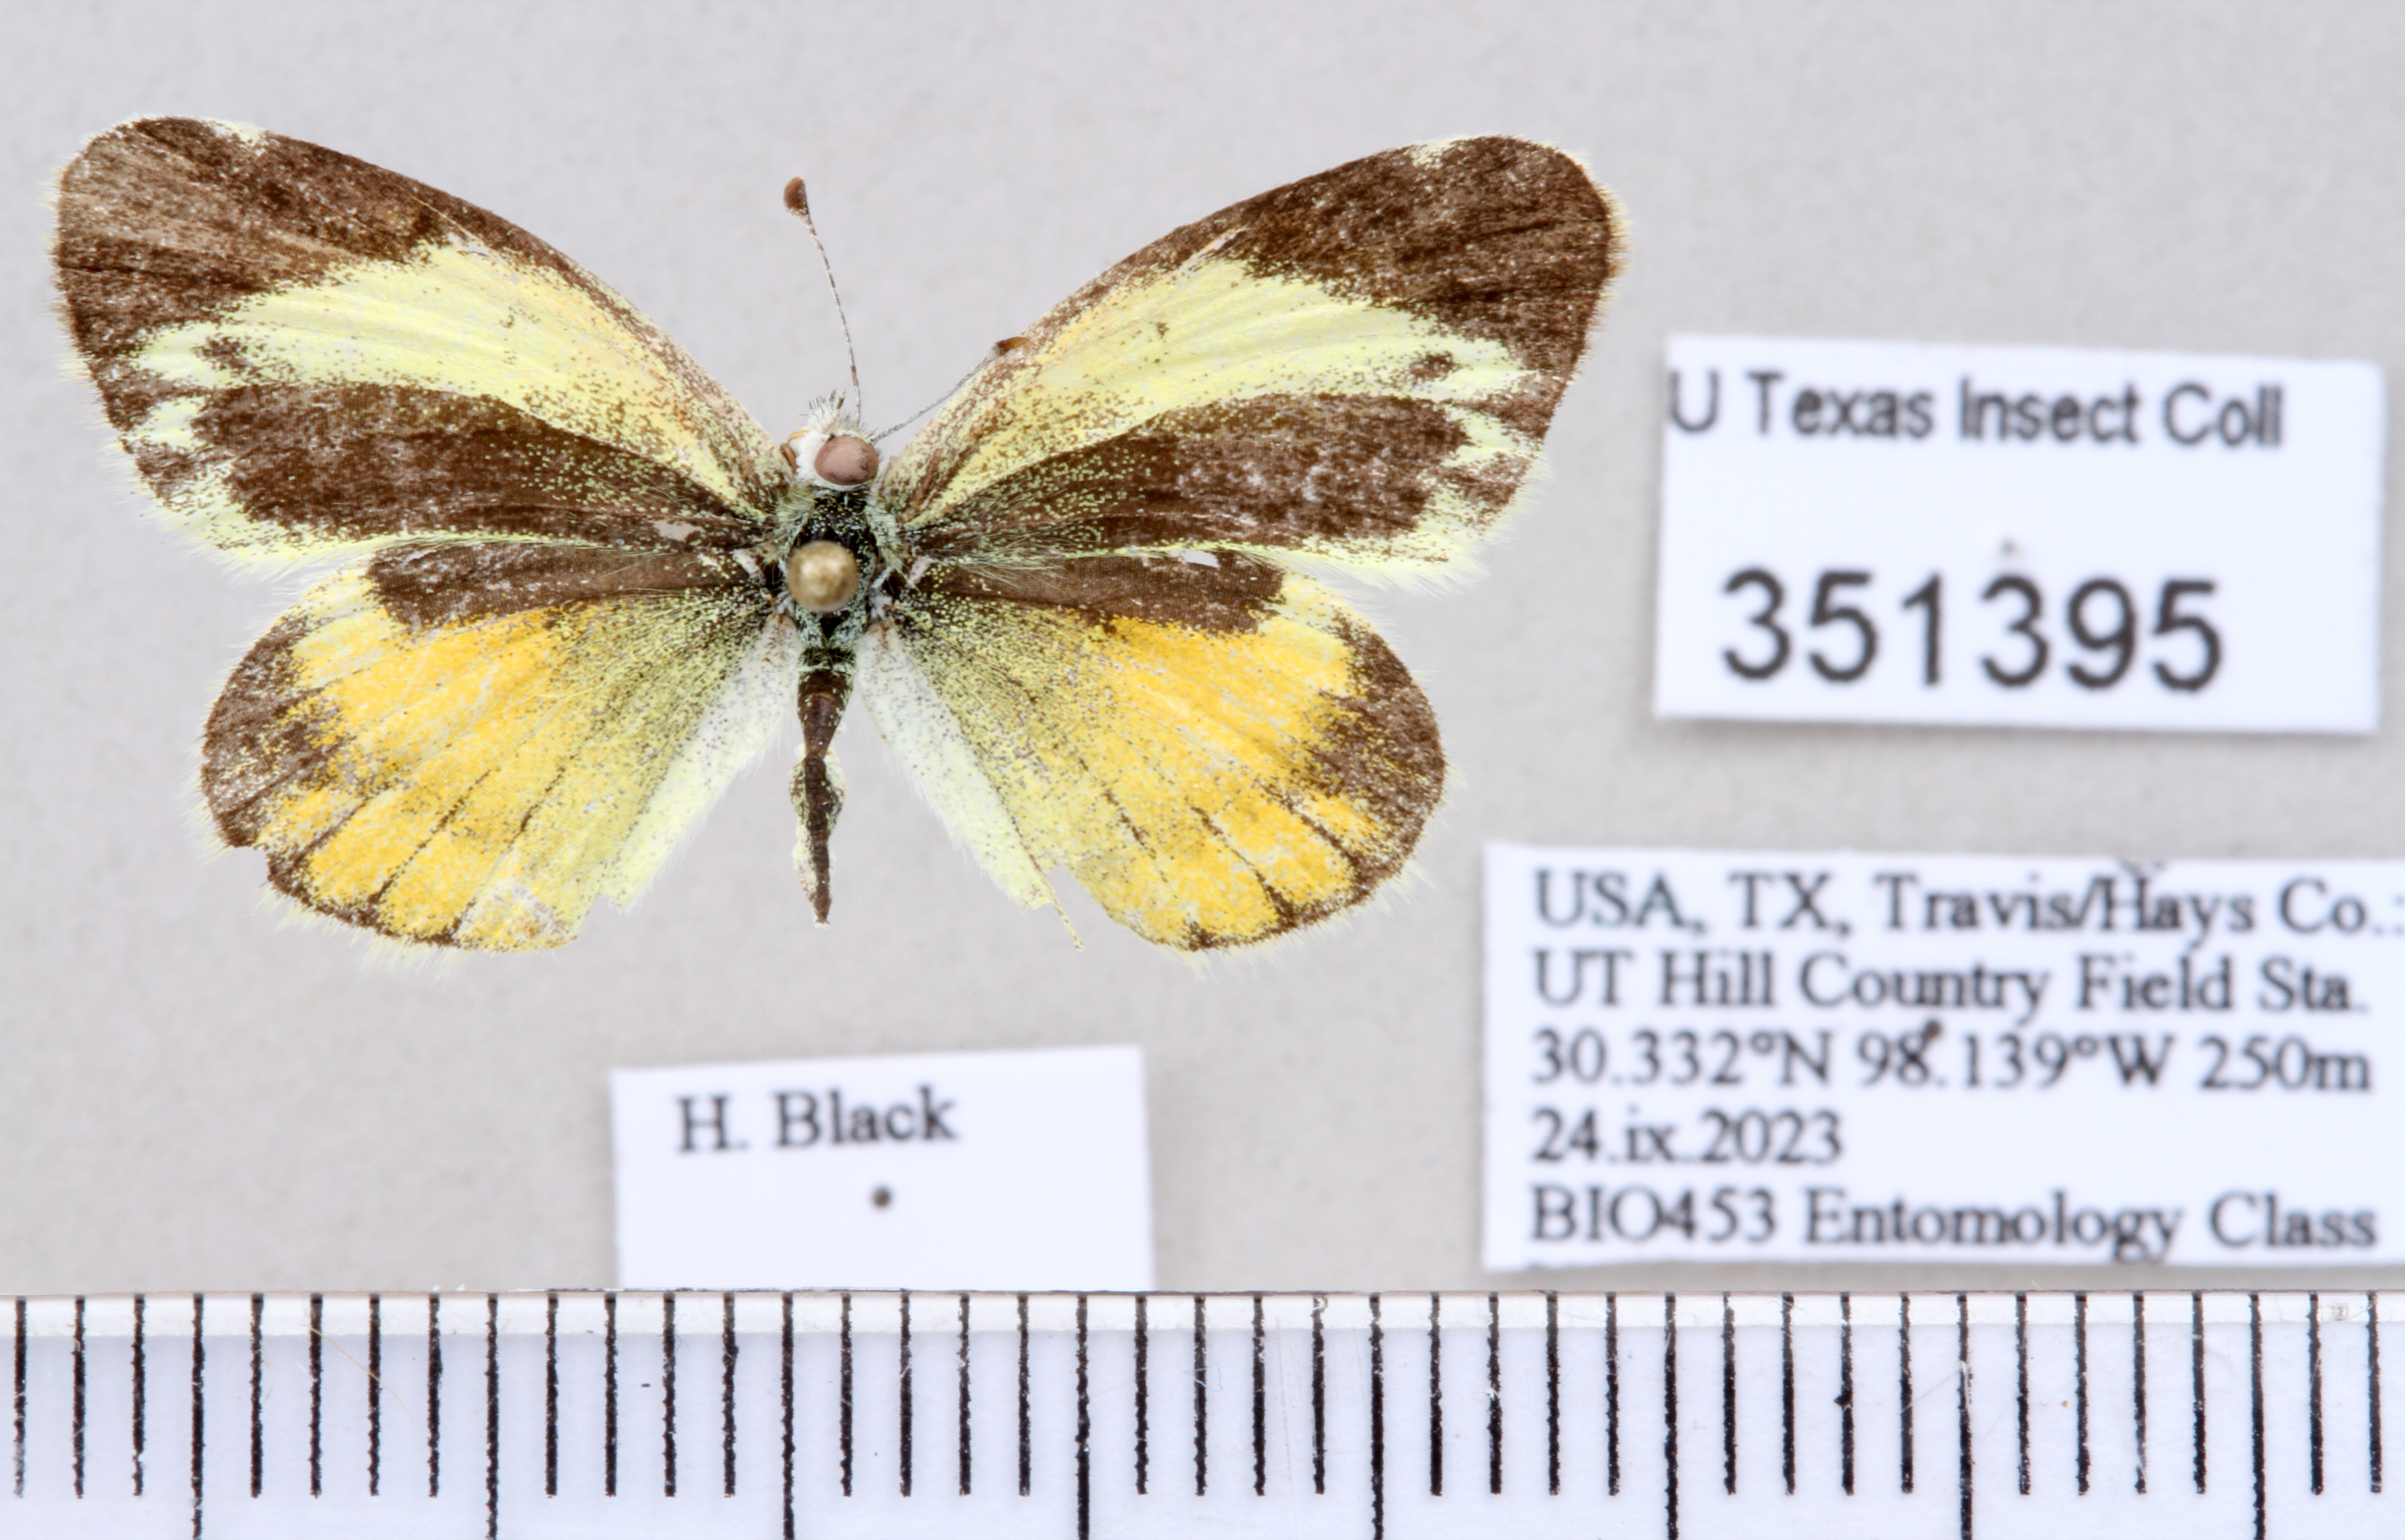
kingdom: Animalia
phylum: Arthropoda
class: Insecta
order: Lepidoptera
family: Pieridae
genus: Nathalis
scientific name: Nathalis iole
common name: Dainty sulphur
